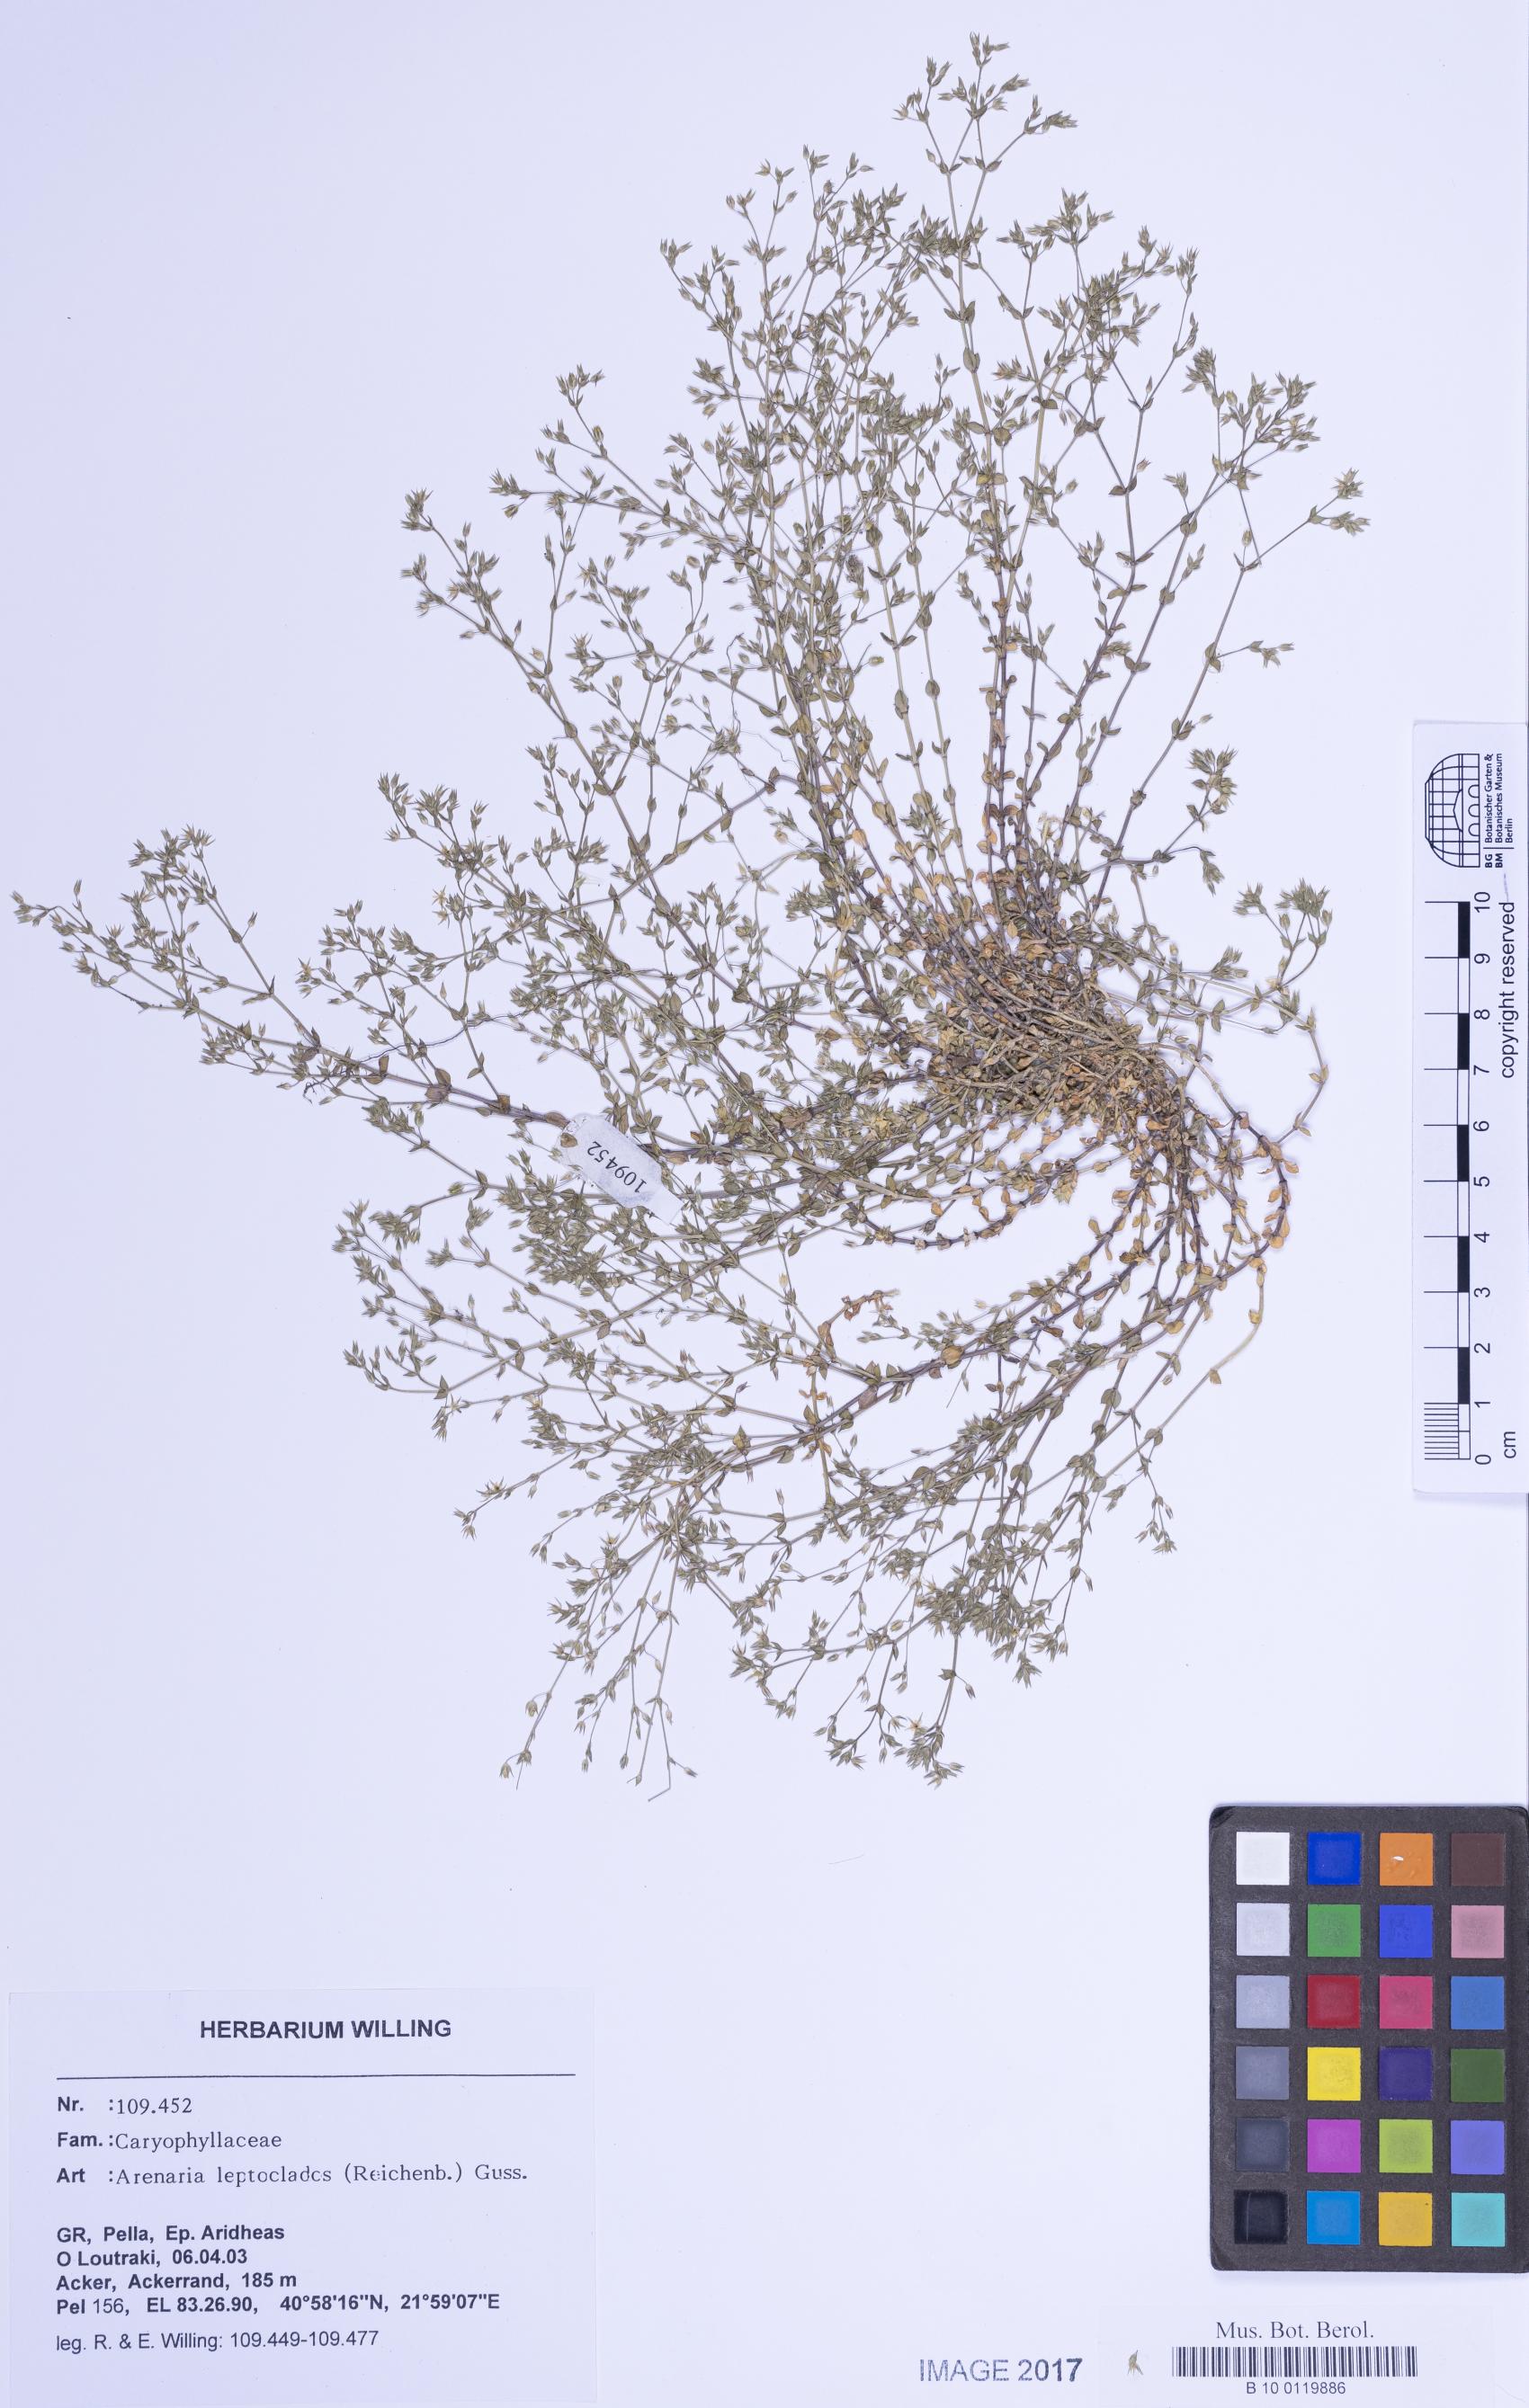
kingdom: Plantae
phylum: Tracheophyta
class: Magnoliopsida
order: Caryophyllales
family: Caryophyllaceae
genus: Arenaria
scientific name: Arenaria leptoclados
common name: Thyme-leaved sandwort
